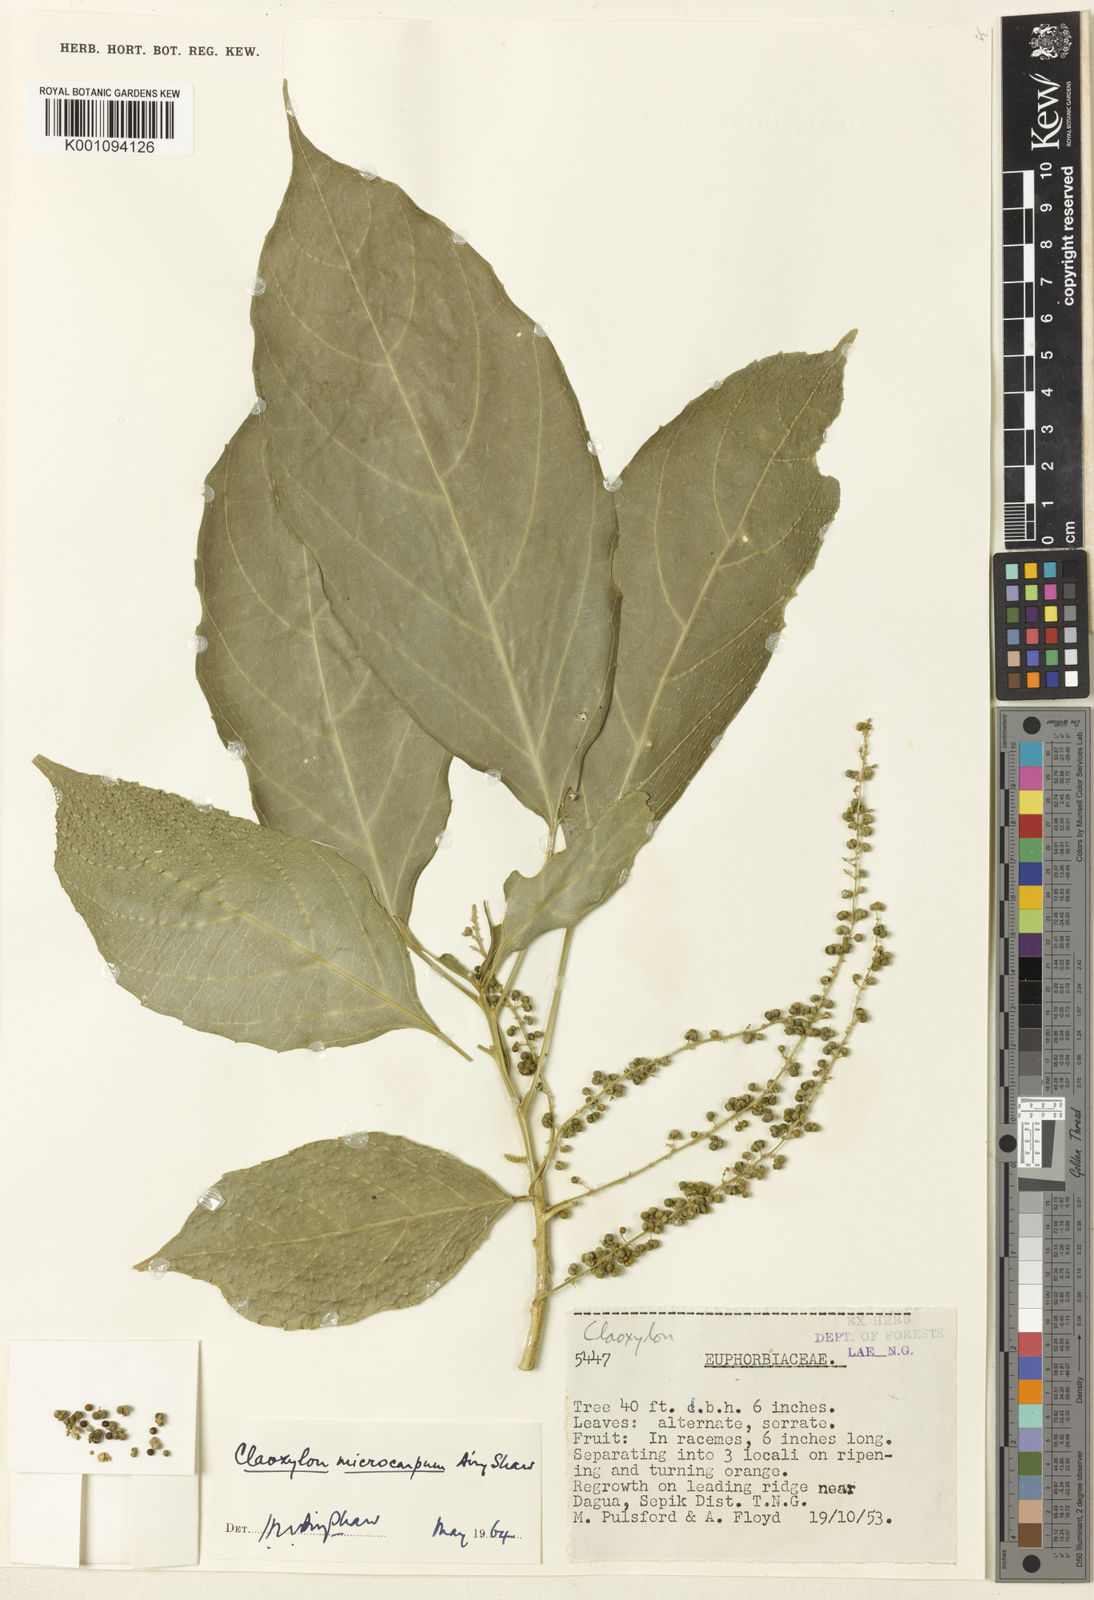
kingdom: Plantae
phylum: Tracheophyta
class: Magnoliopsida
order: Malpighiales
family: Euphorbiaceae
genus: Claoxylon
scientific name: Claoxylon microcarpum
